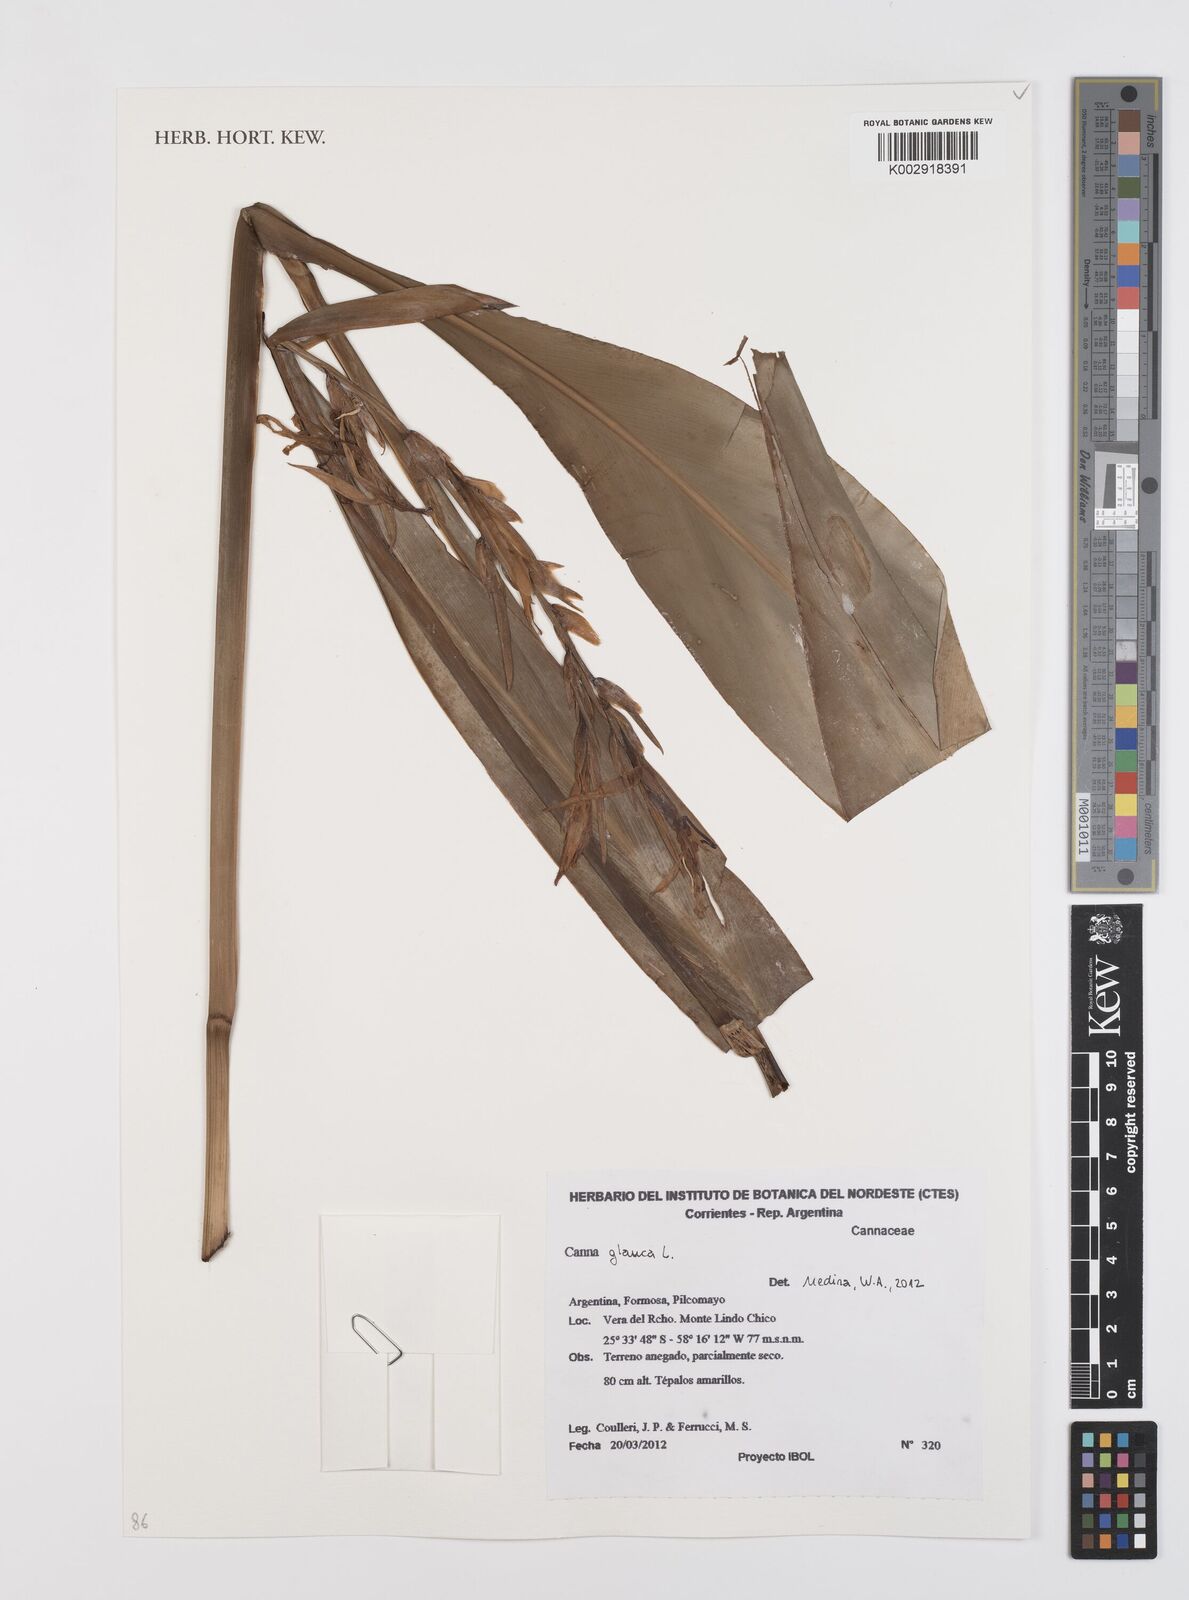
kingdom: Plantae
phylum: Tracheophyta
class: Liliopsida
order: Zingiberales
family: Cannaceae
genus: Canna
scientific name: Canna glauca
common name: Louisiana canna
